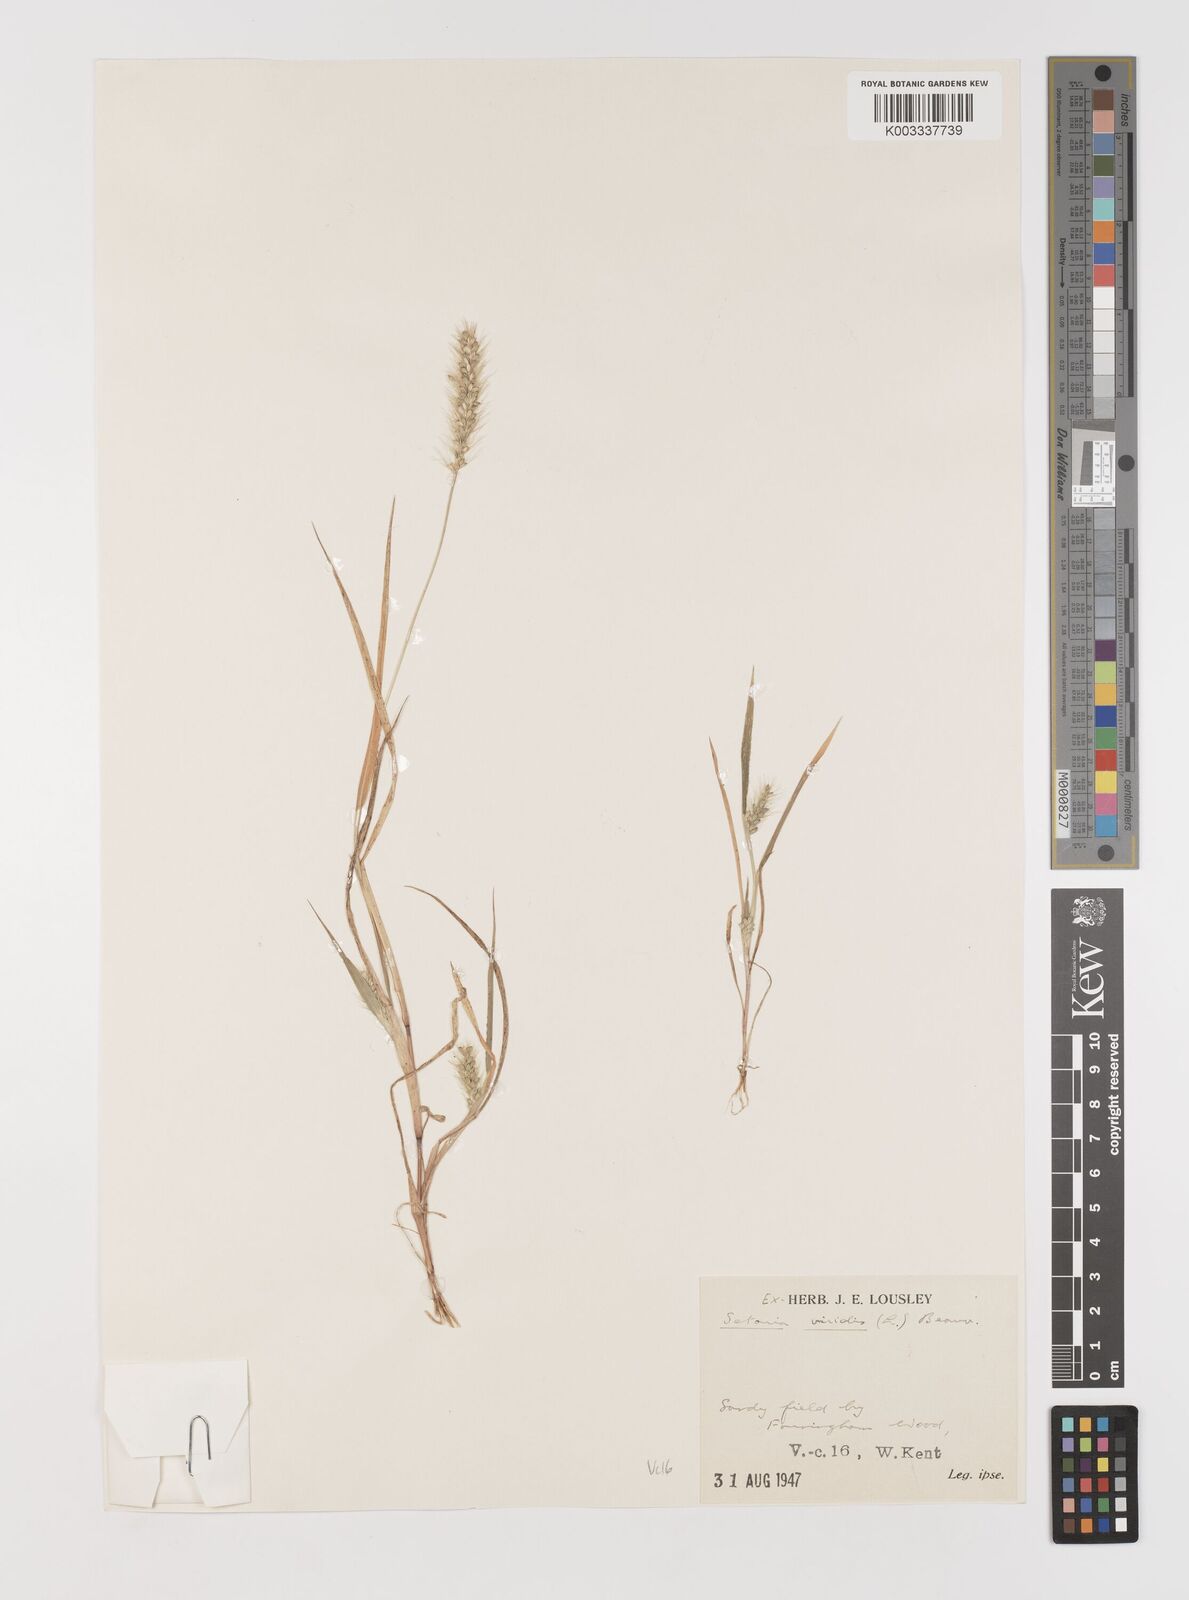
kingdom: Plantae
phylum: Tracheophyta
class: Liliopsida
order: Poales
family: Poaceae
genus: Setaria
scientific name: Setaria viridis
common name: Green bristlegrass
